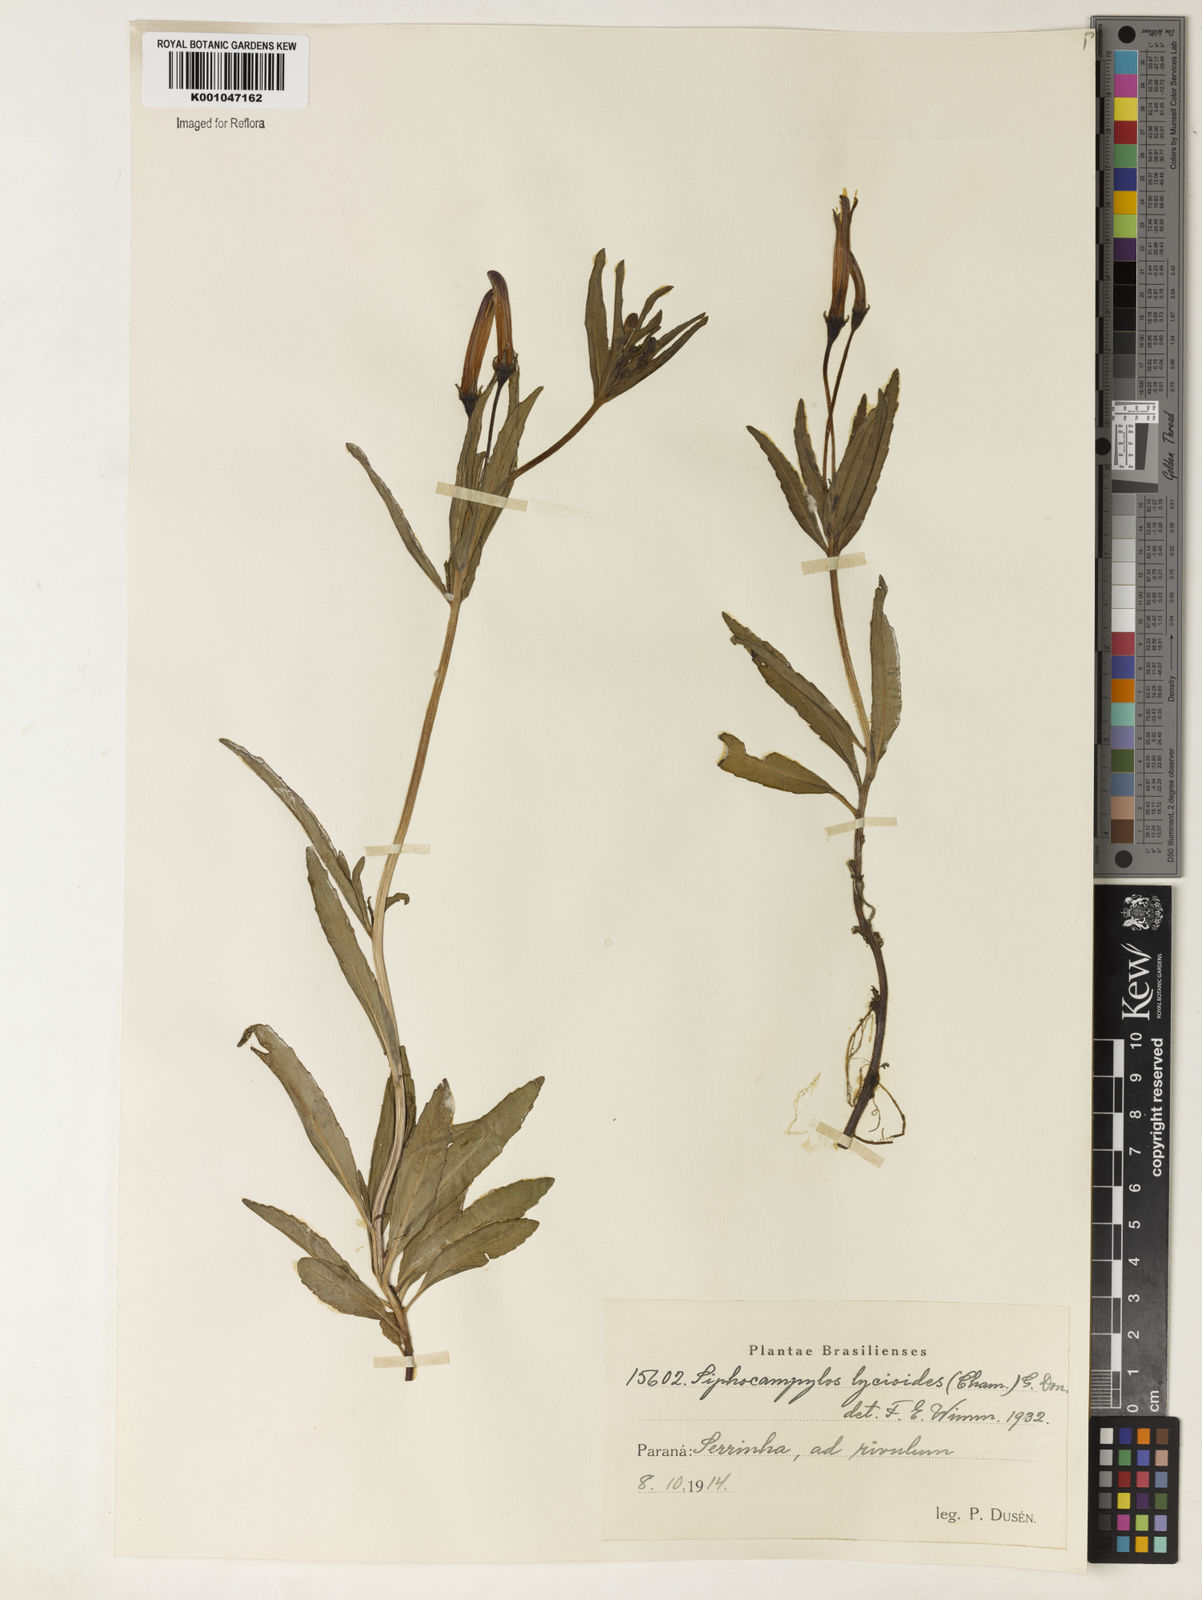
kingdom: Plantae
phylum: Tracheophyta
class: Magnoliopsida
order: Asterales
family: Campanulaceae
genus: Siphocampylus
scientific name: Siphocampylus lycioides
